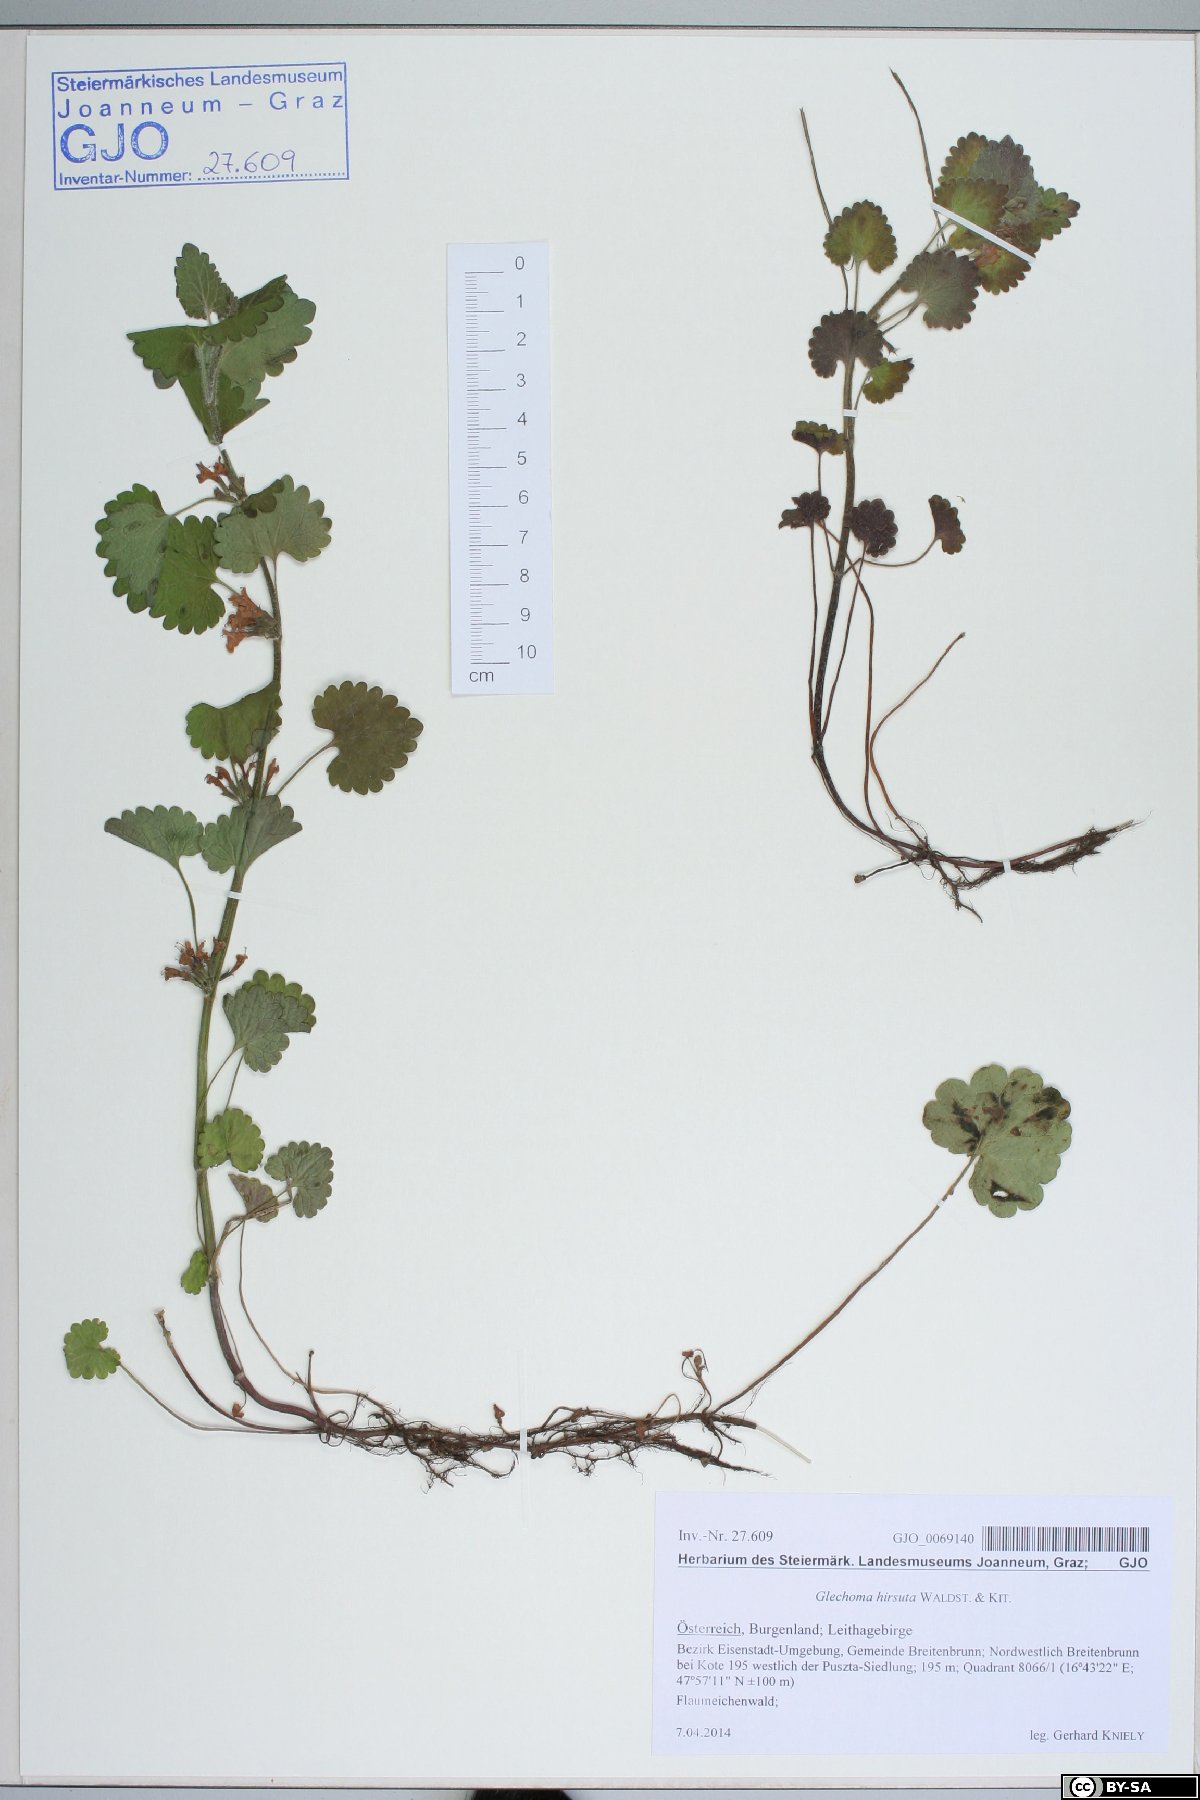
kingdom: Plantae
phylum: Tracheophyta
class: Magnoliopsida
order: Lamiales
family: Lamiaceae
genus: Glechoma
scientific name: Glechoma hirsuta
